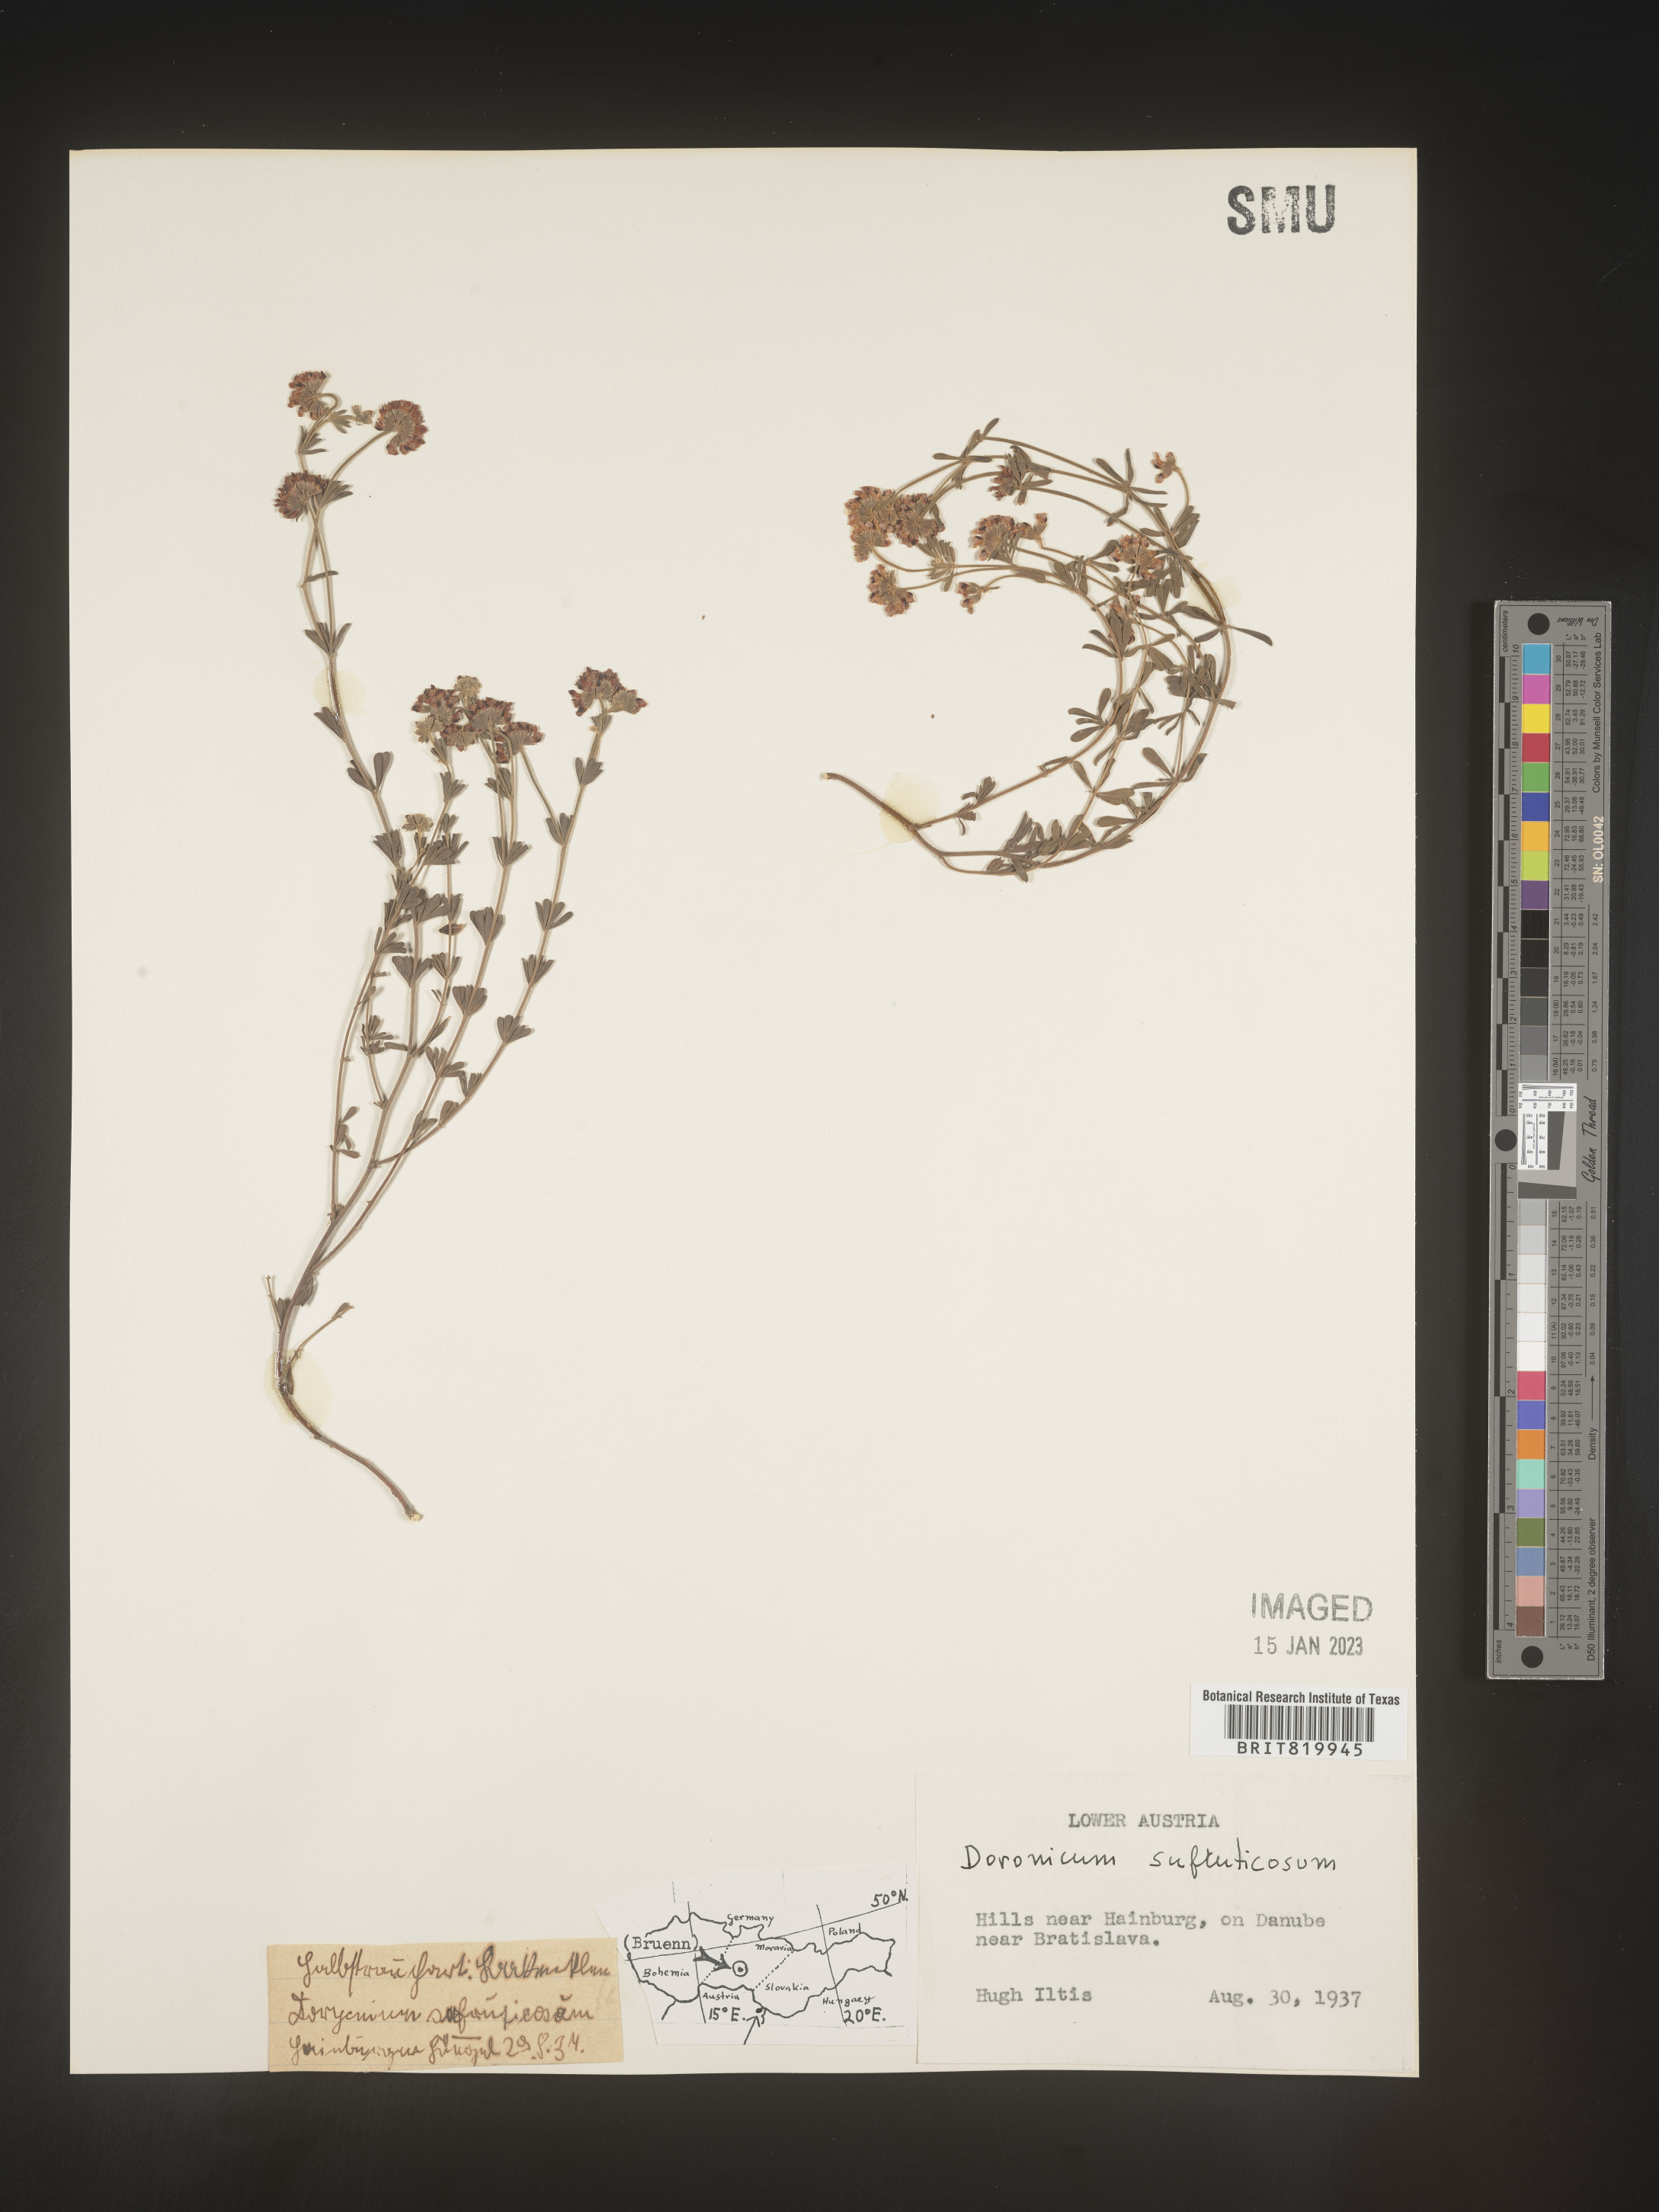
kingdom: Plantae
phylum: Tracheophyta
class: Magnoliopsida
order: Fabales
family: Fabaceae
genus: Lotus
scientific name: Lotus
